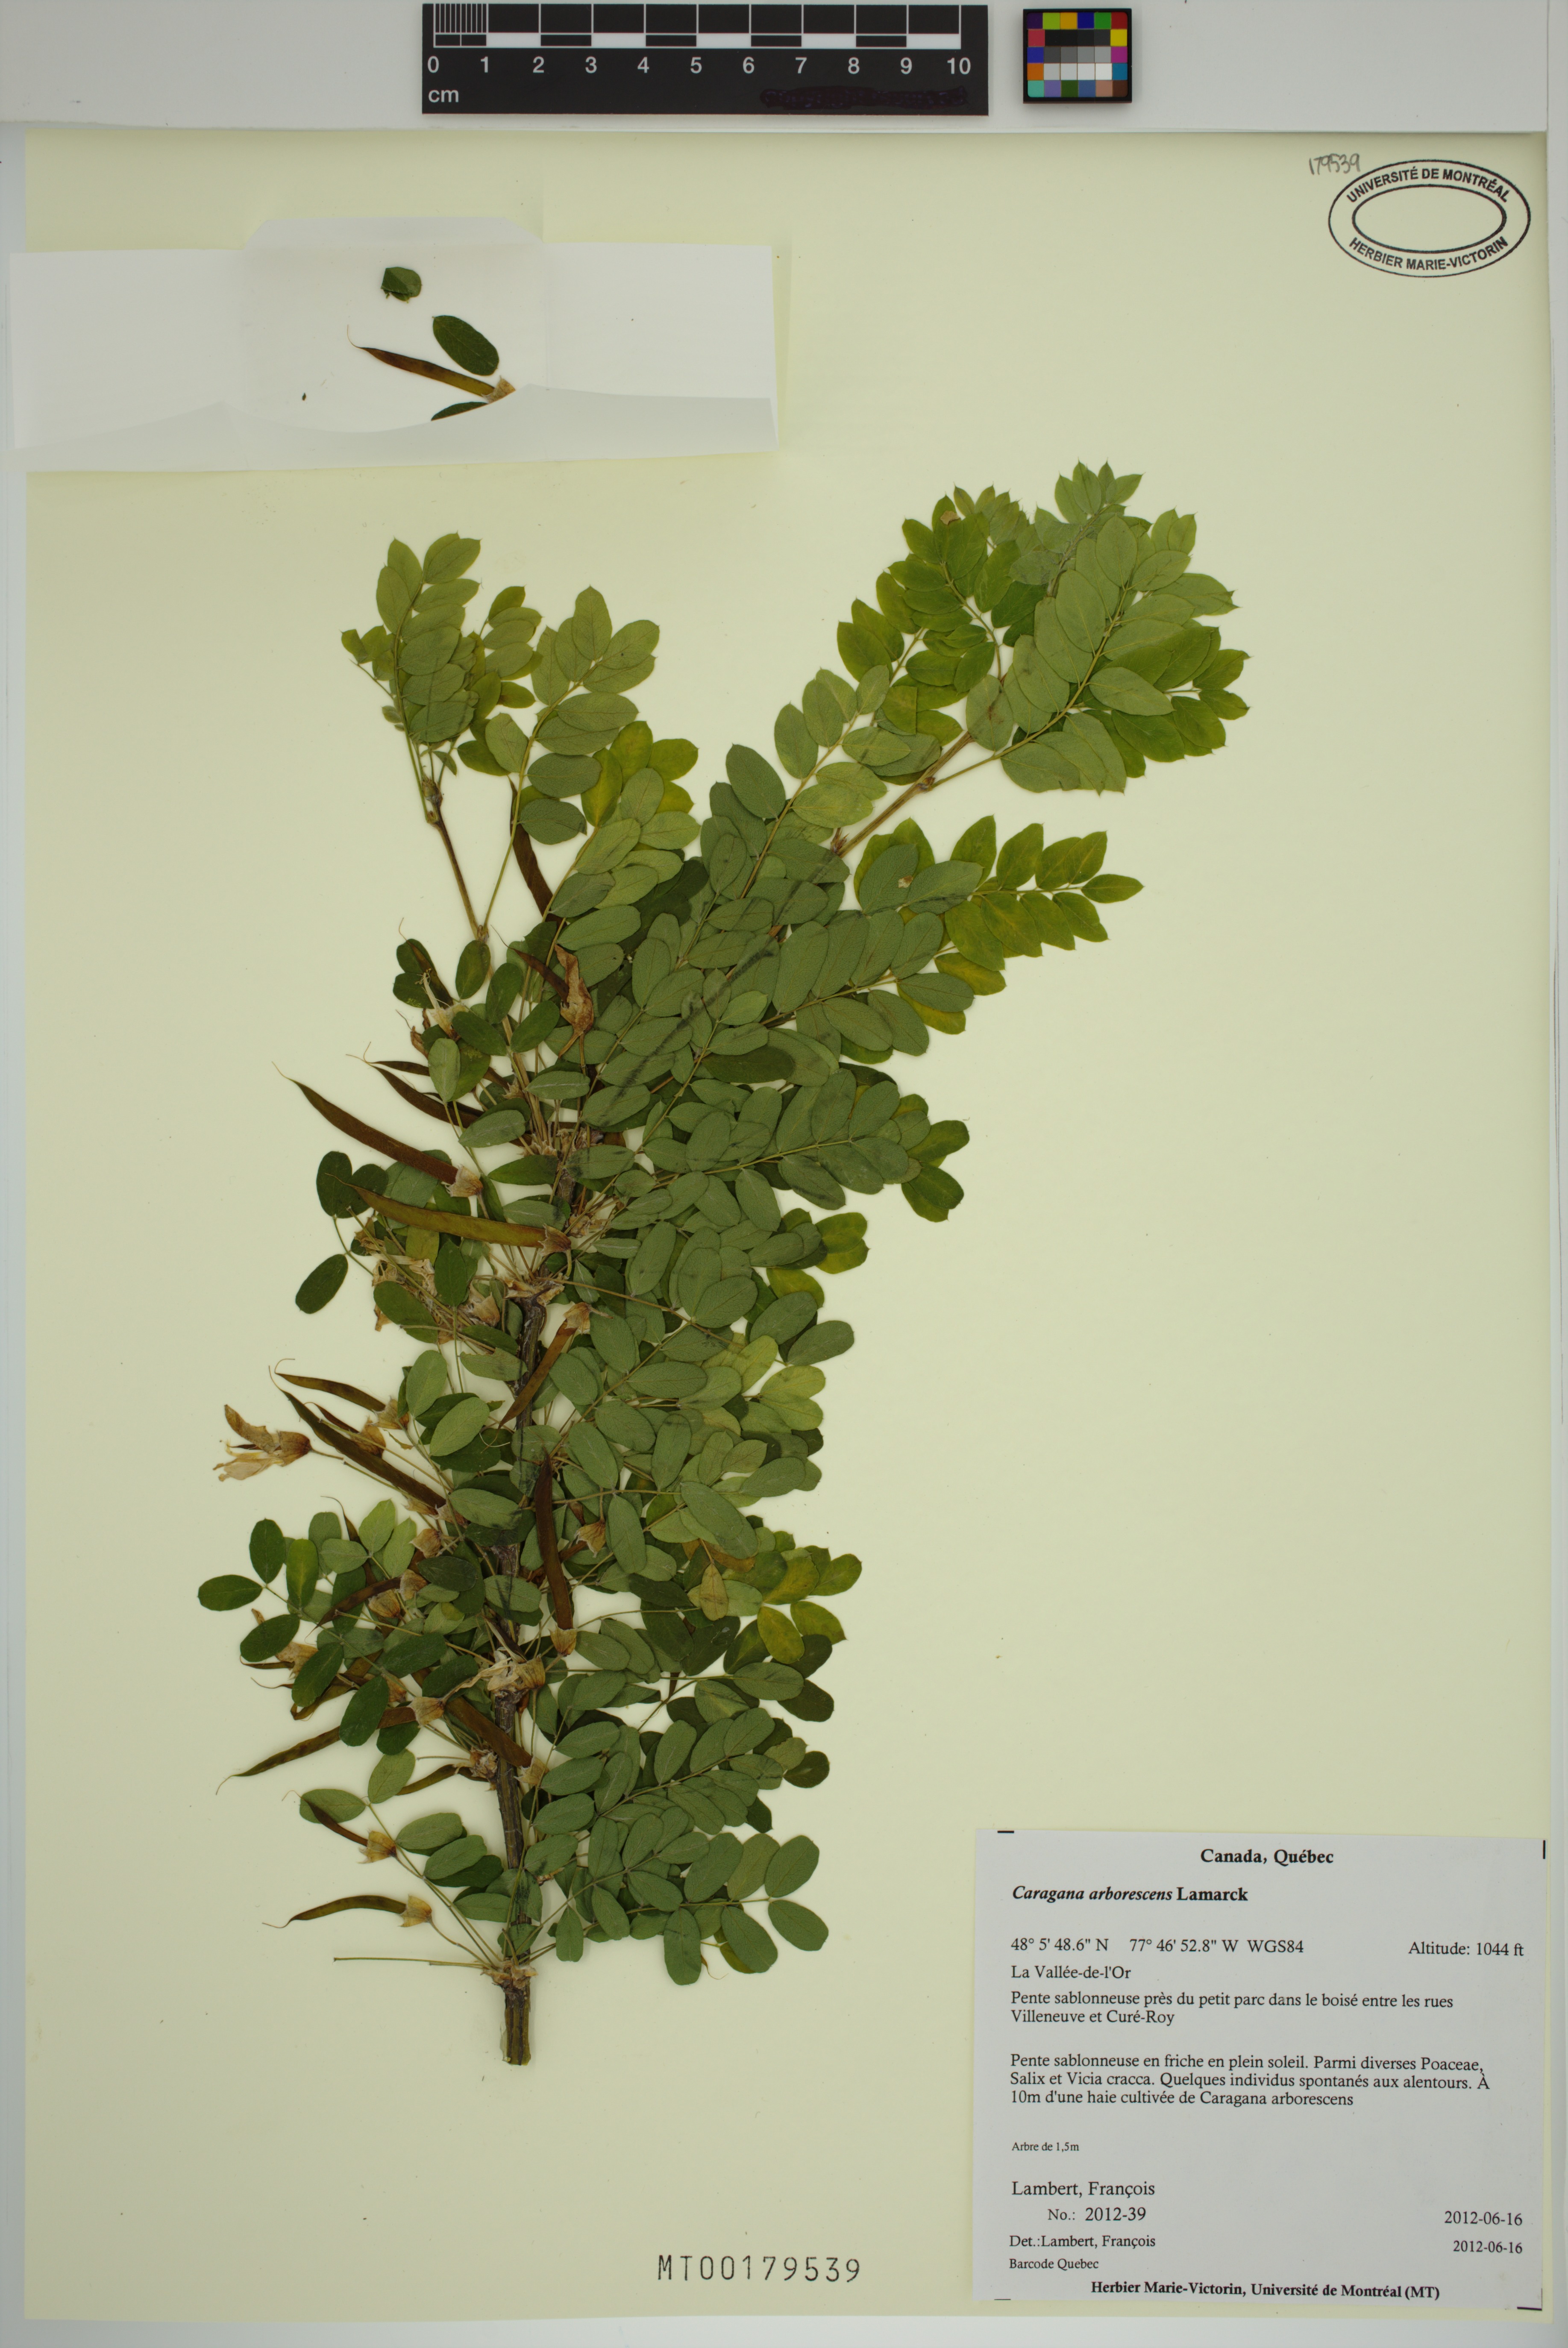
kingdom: Plantae
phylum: Tracheophyta
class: Magnoliopsida
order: Fabales
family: Fabaceae
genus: Caragana
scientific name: Caragana arborescens
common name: Siberian peashrub
